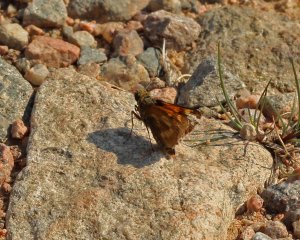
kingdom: Animalia
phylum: Arthropoda
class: Insecta
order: Lepidoptera
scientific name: Lepidoptera
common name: Butterflies
